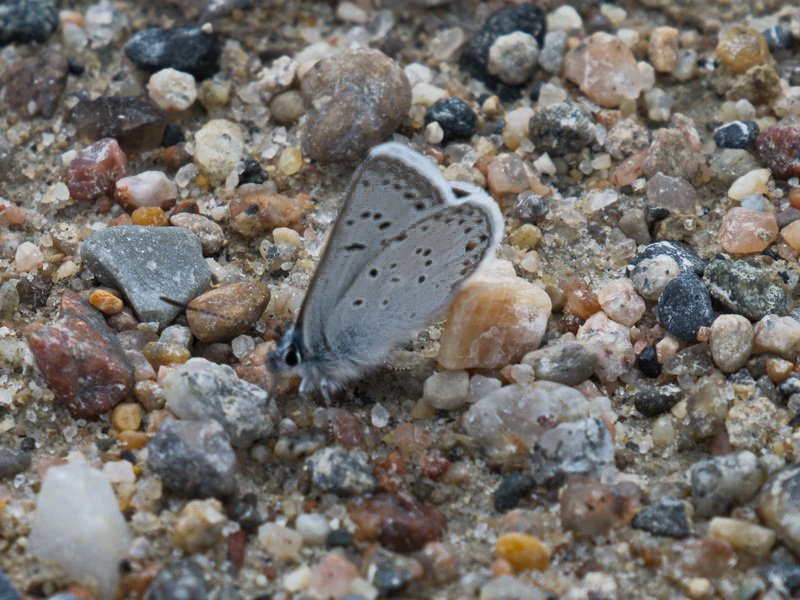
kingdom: Animalia
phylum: Arthropoda
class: Insecta
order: Lepidoptera
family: Lycaenidae
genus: Plebejus
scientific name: Plebejus saepiolus
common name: Greenish Blue
